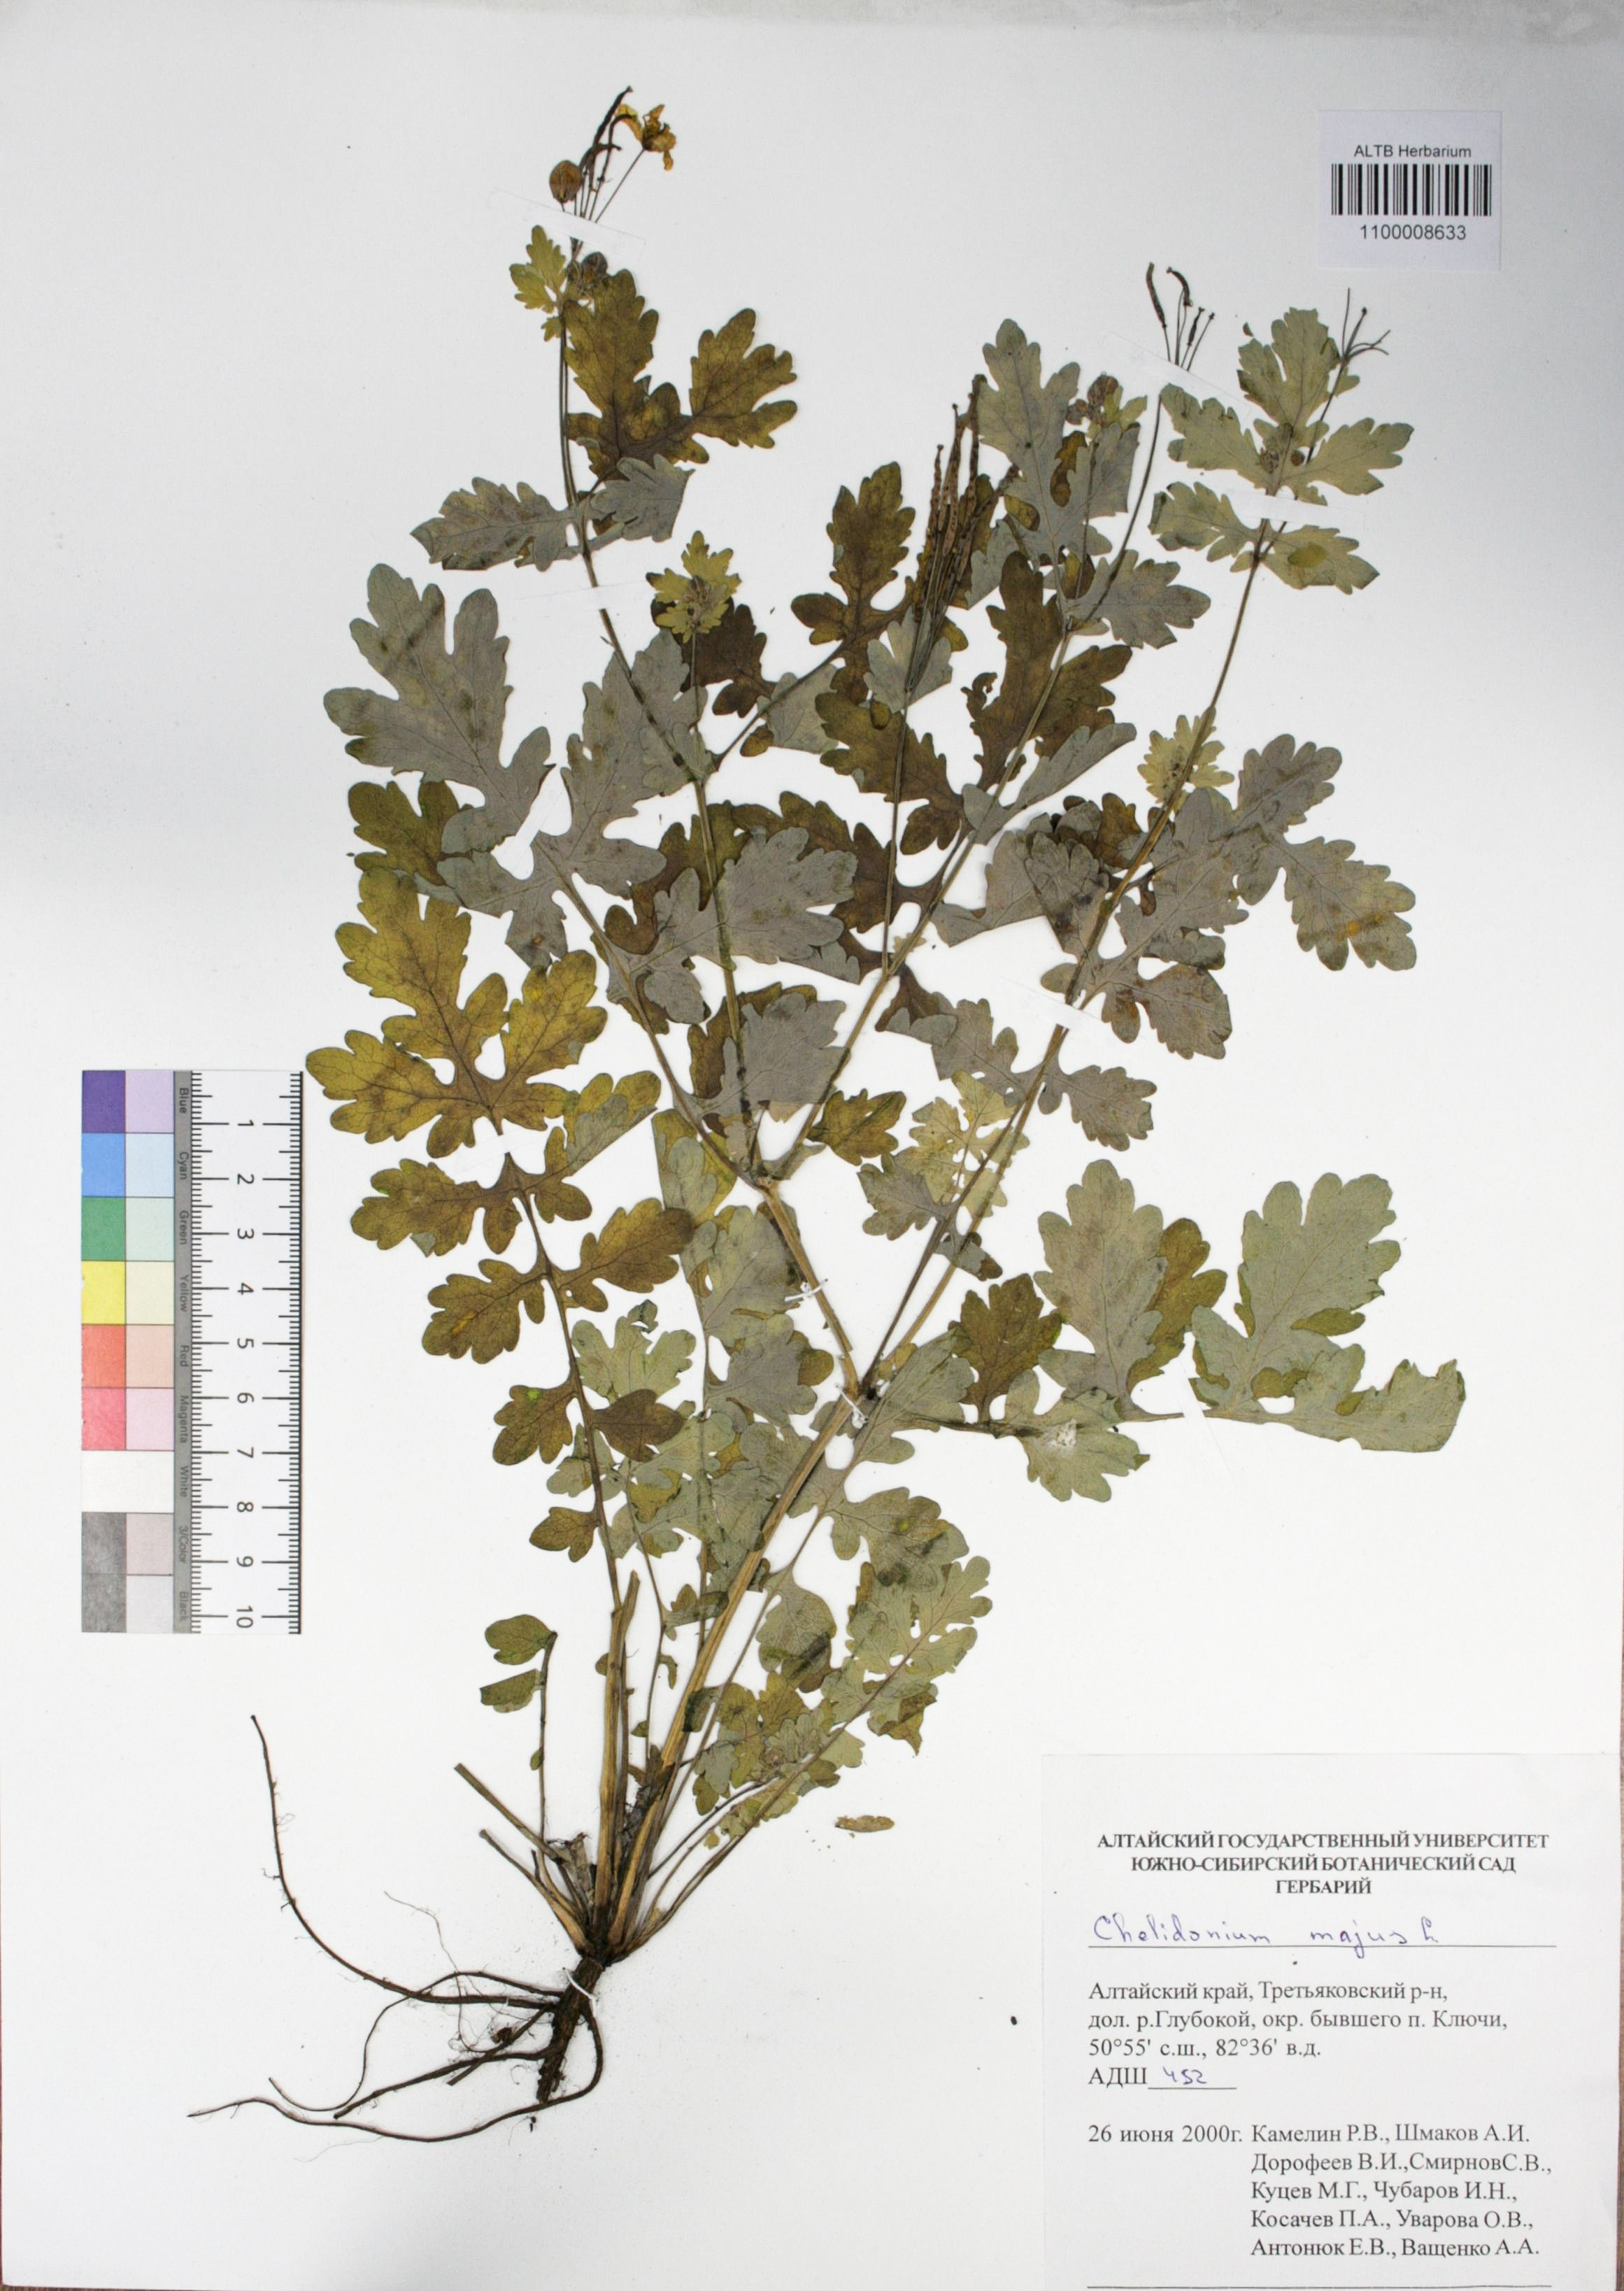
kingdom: Plantae
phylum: Tracheophyta
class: Magnoliopsida
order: Ranunculales
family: Papaveraceae
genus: Chelidonium
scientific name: Chelidonium majus
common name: Greater celandine
